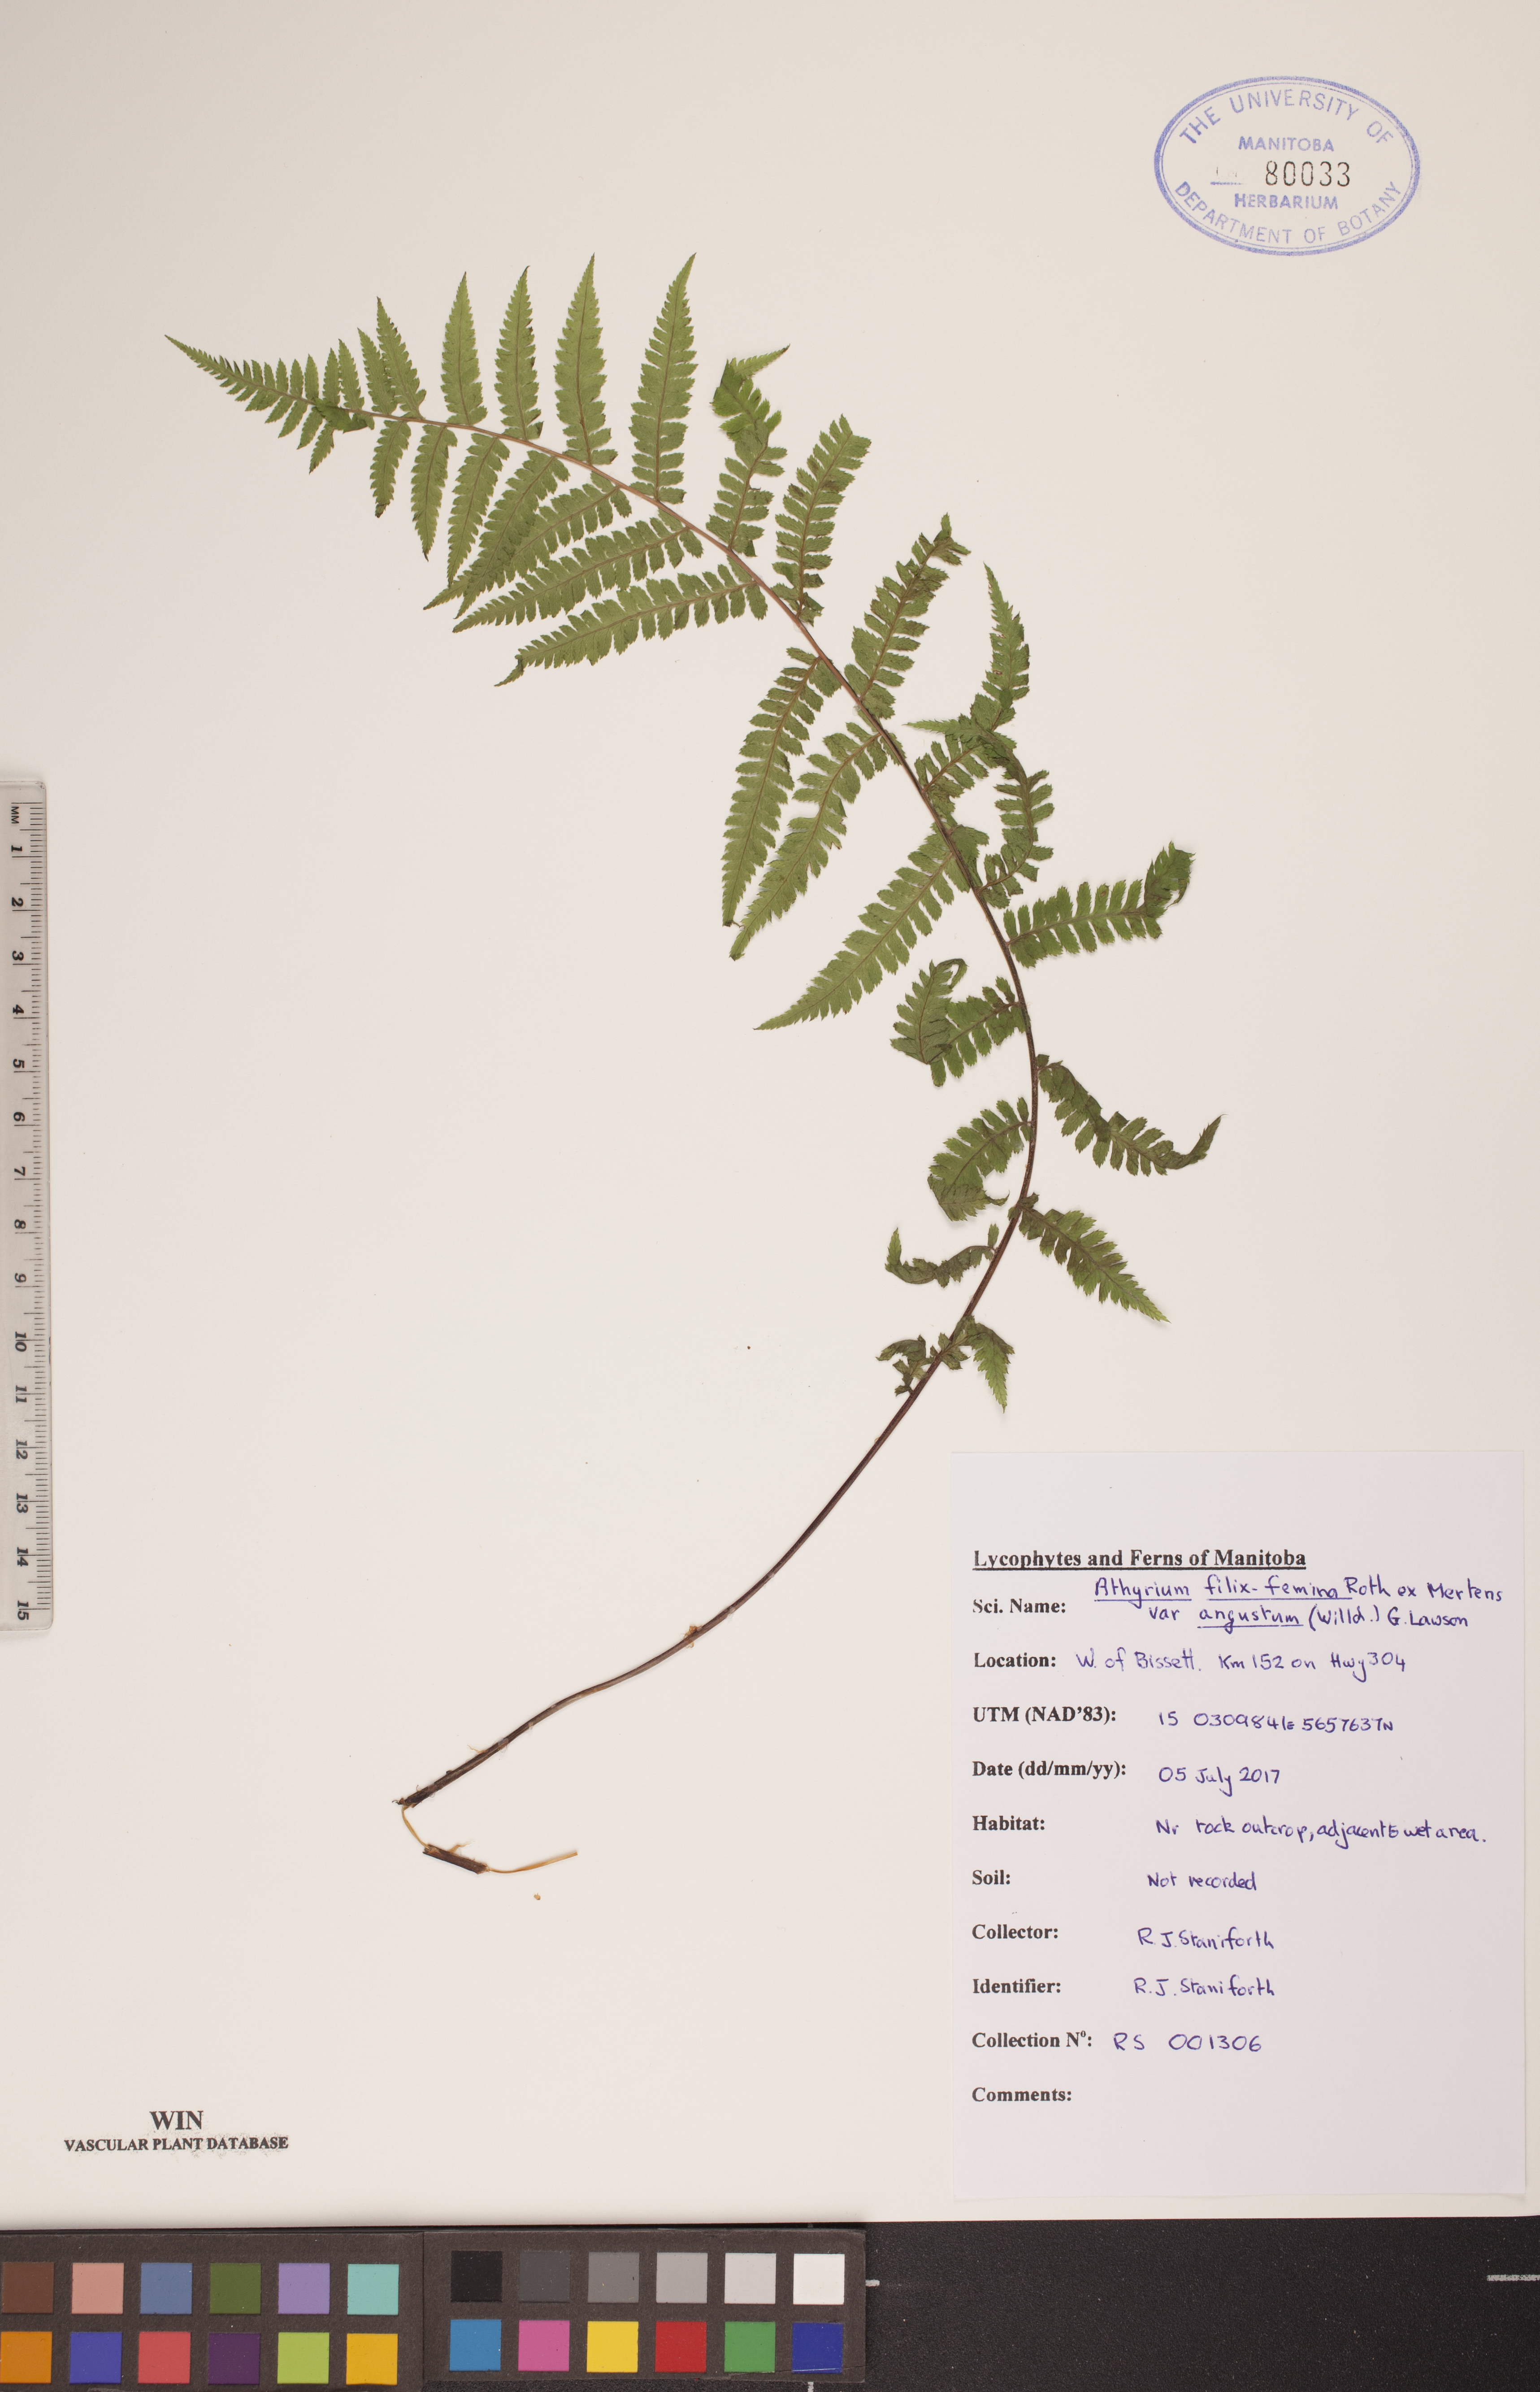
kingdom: Plantae
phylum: Tracheophyta
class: Polypodiopsida
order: Polypodiales
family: Athyriaceae
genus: Athyrium
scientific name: Athyrium angustum
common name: Northern lady fern
